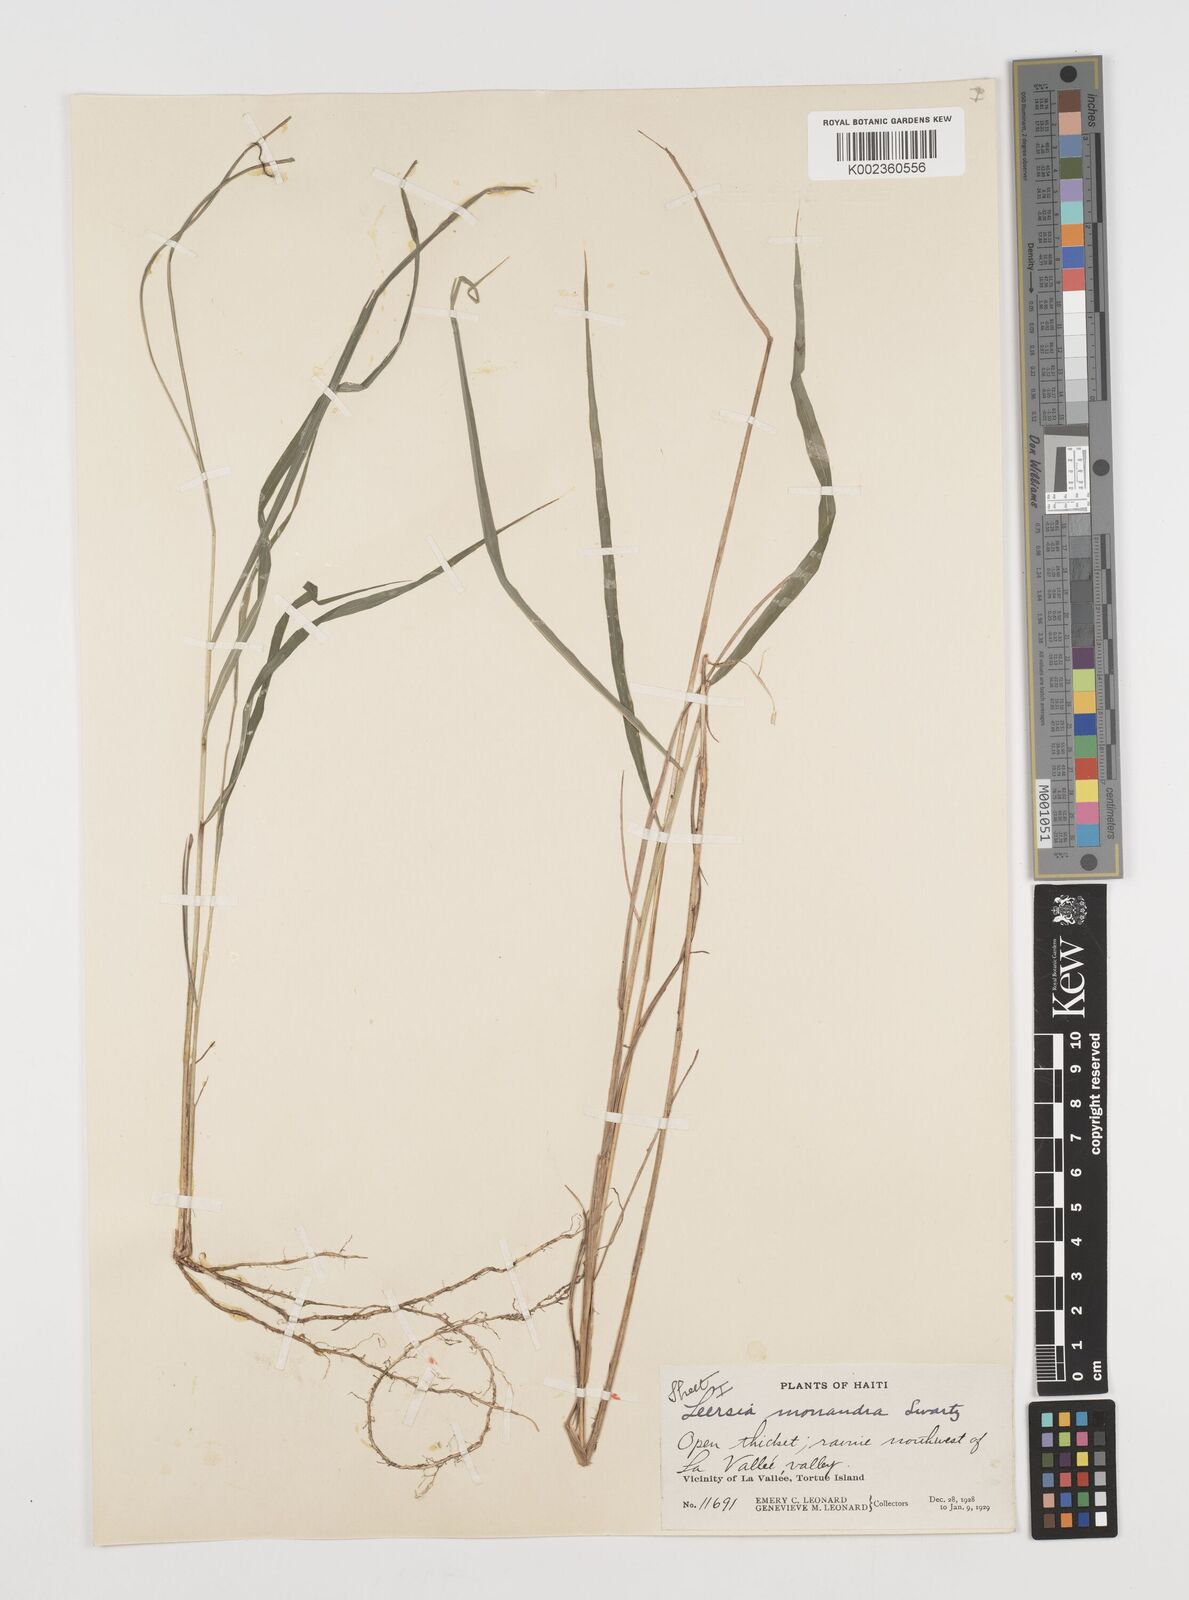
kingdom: Plantae
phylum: Tracheophyta
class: Liliopsida
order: Poales
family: Poaceae
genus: Leersia
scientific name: Leersia monandra
